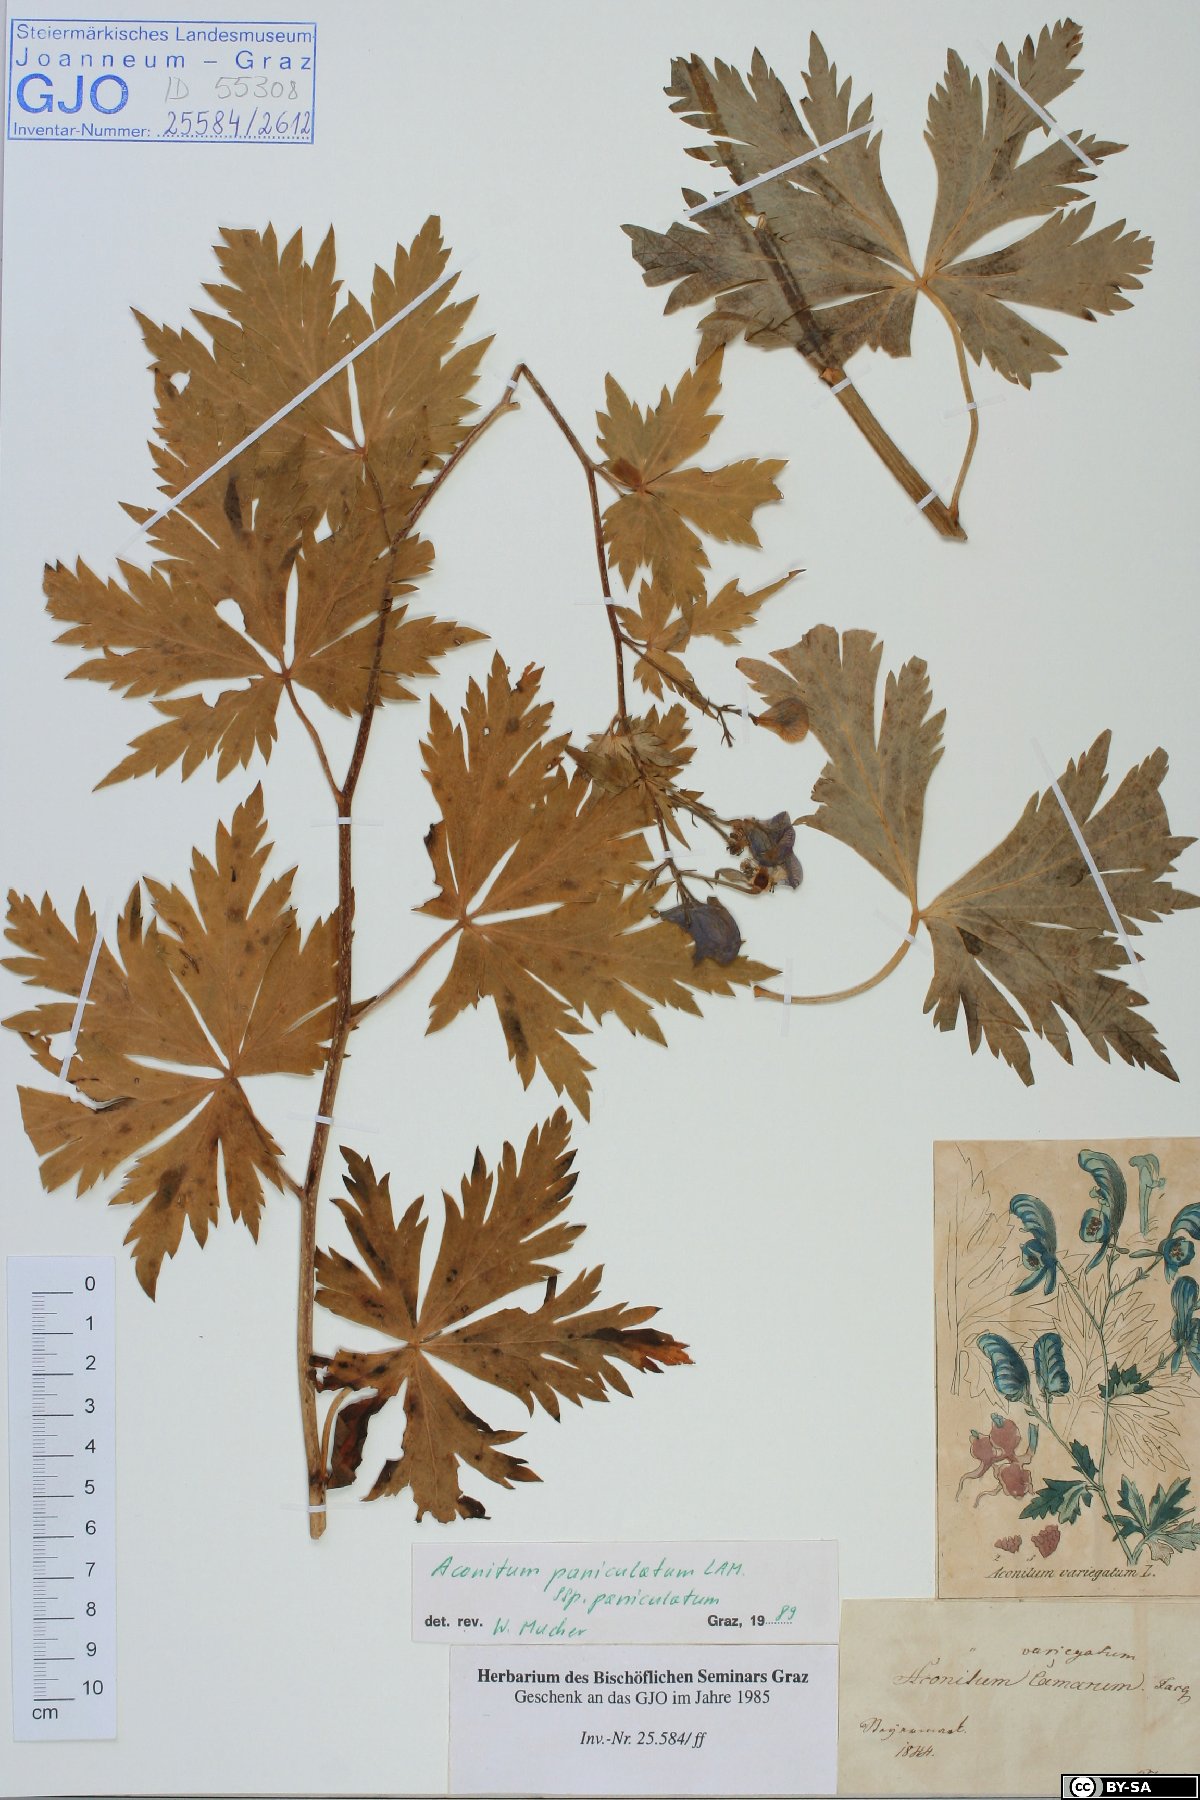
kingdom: Plantae
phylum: Tracheophyta
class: Magnoliopsida
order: Ranunculales
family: Ranunculaceae
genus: Aconitum
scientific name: Aconitum degenii
